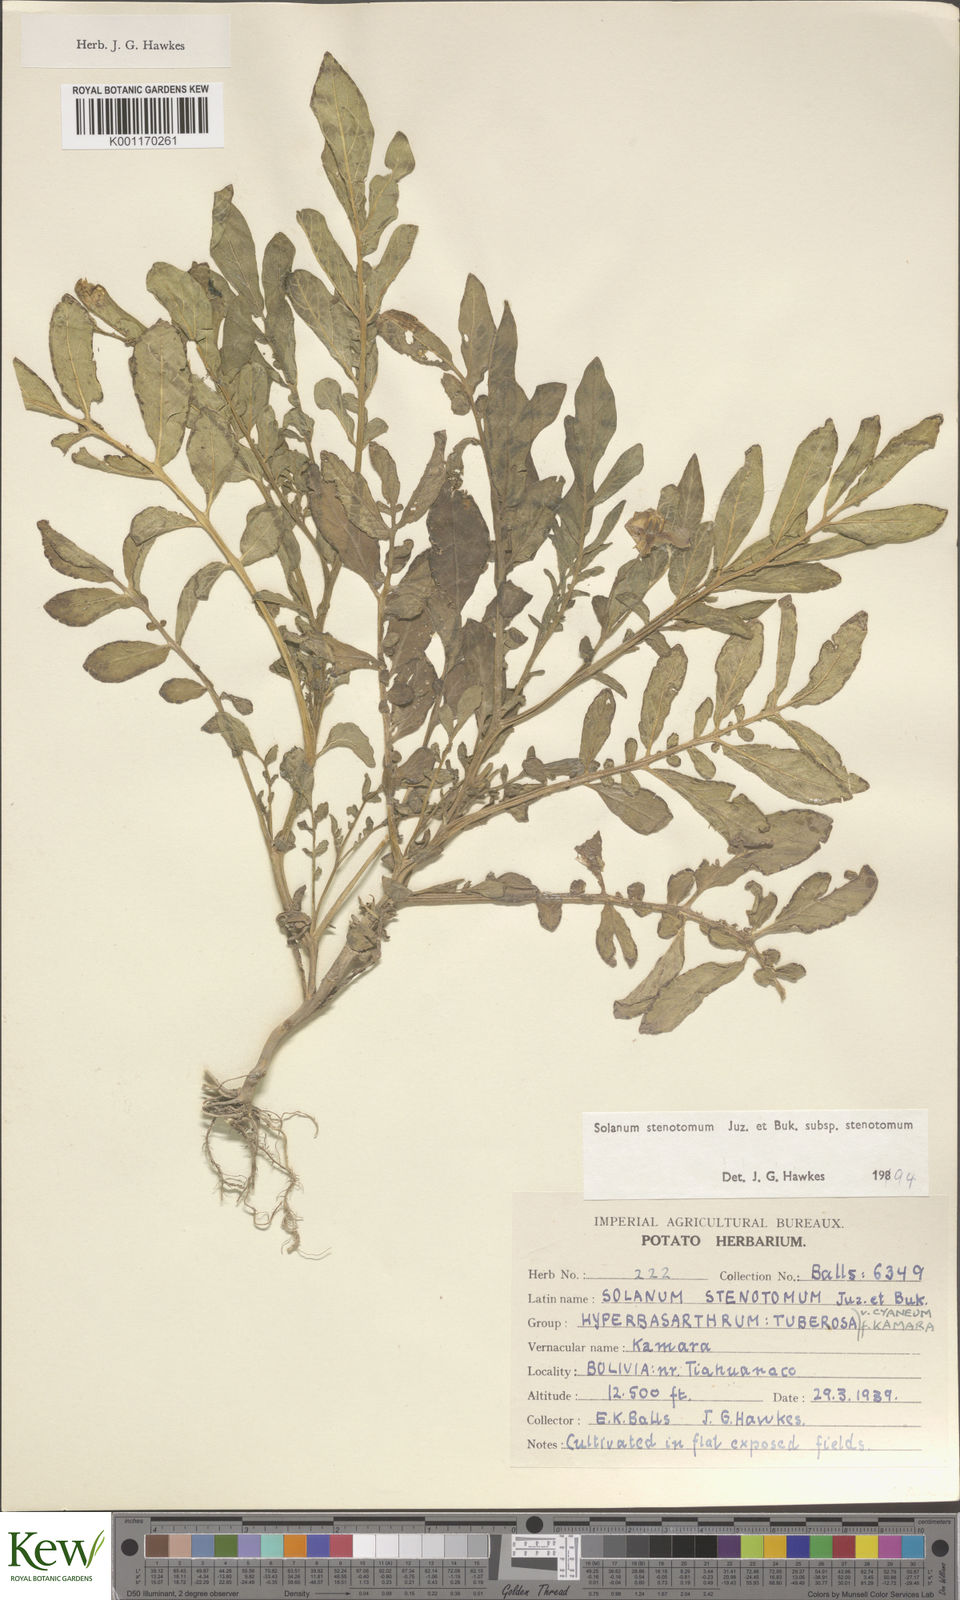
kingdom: Plantae
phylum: Tracheophyta
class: Magnoliopsida
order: Solanales
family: Solanaceae
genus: Solanum
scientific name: Solanum tuberosum
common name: Potato
